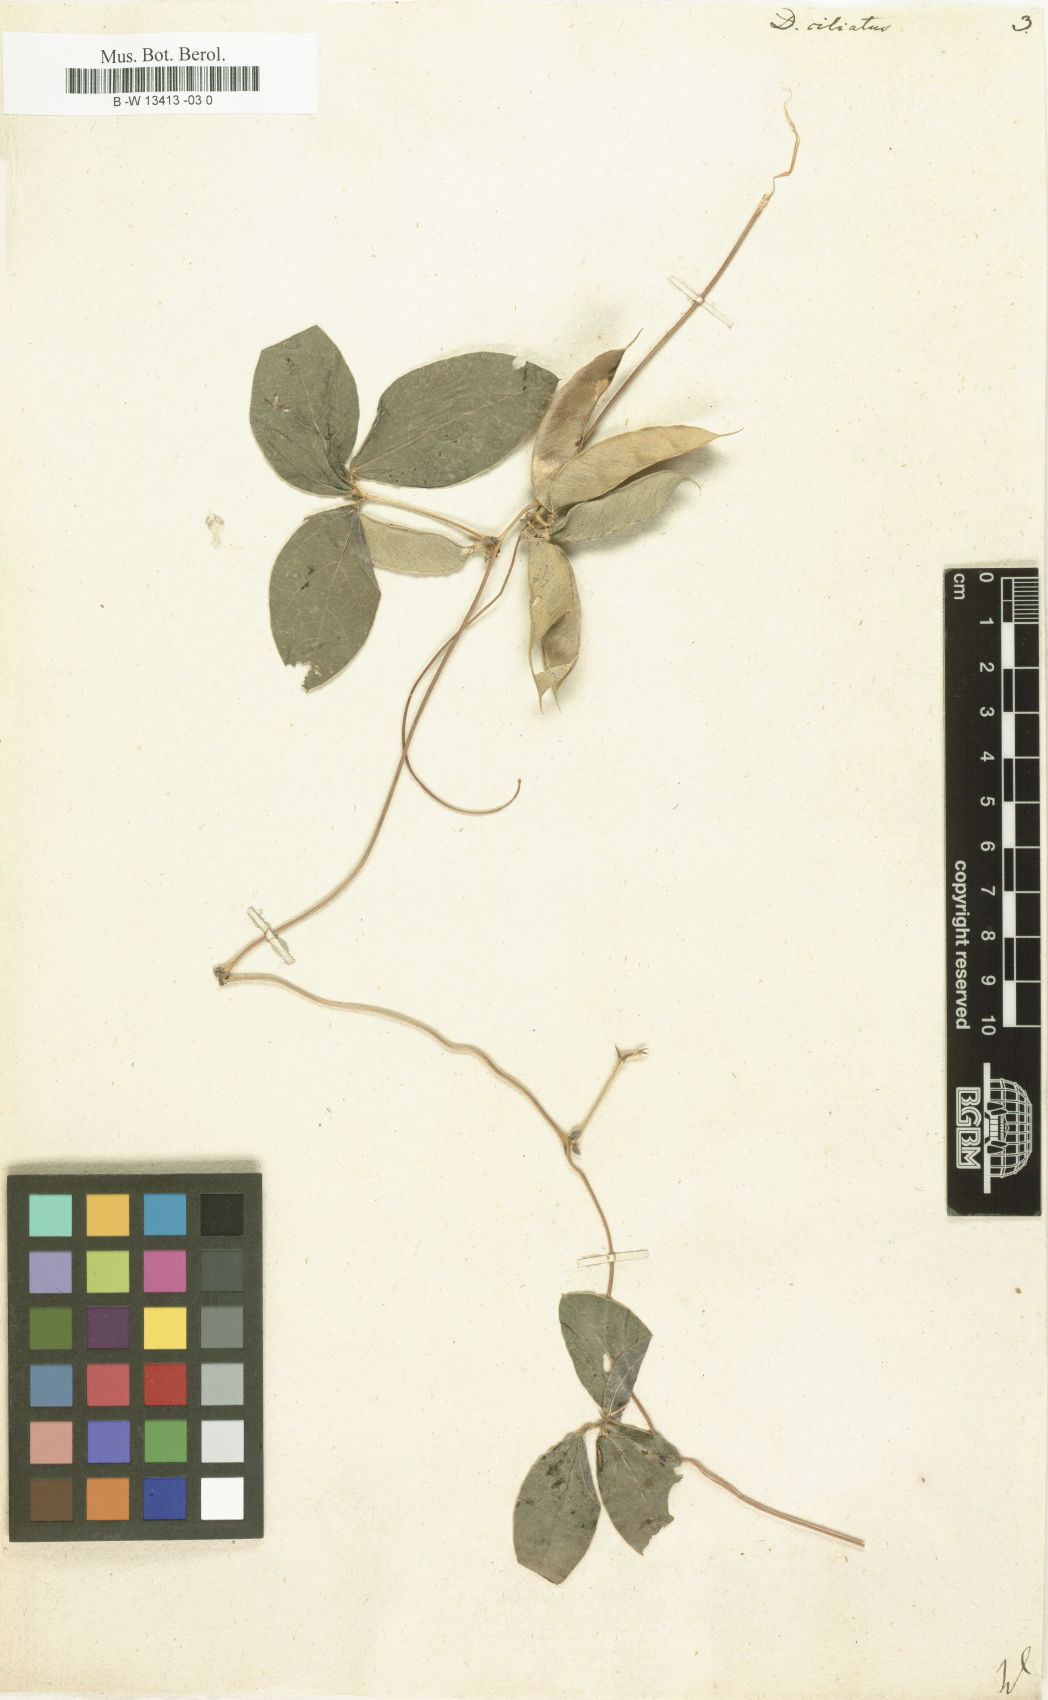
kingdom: Plantae
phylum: Tracheophyta
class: Magnoliopsida
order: Fabales
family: Fabaceae
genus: Macrotyloma
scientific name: Macrotyloma ciliatum
